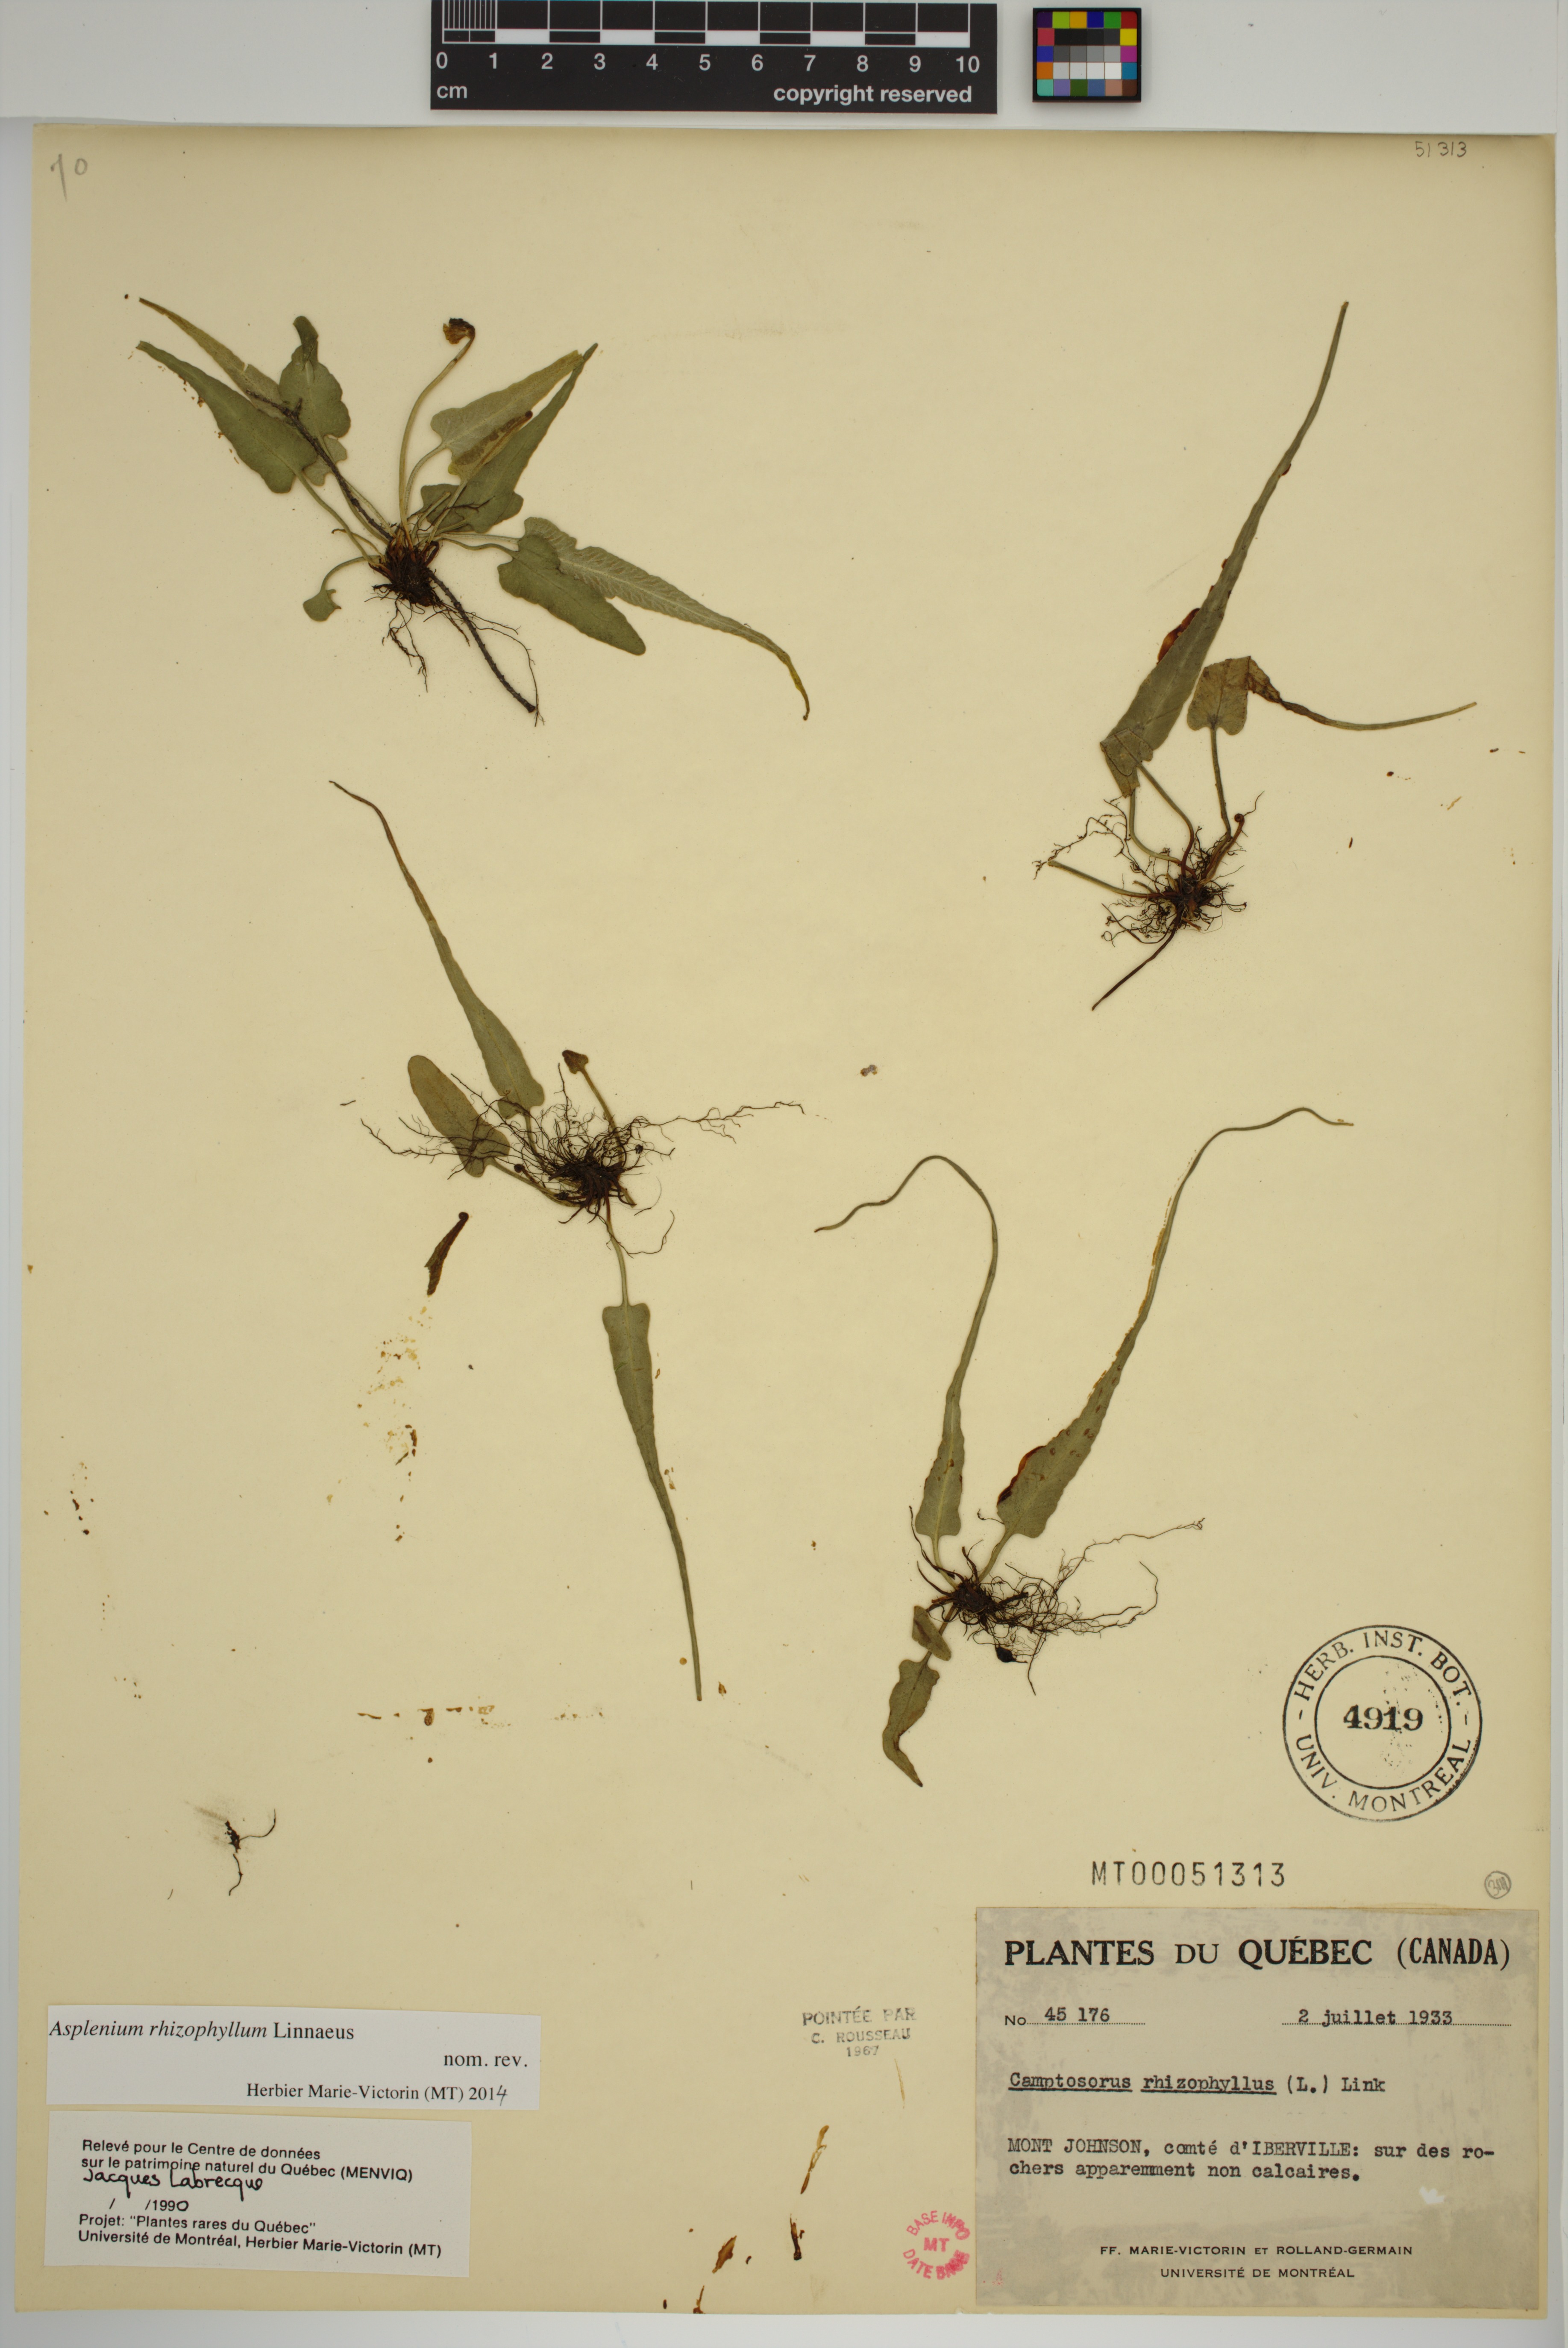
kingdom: Plantae
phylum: Tracheophyta
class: Polypodiopsida
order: Polypodiales
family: Aspleniaceae
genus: Asplenium
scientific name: Asplenium rhizophyllum
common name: Walking fern
